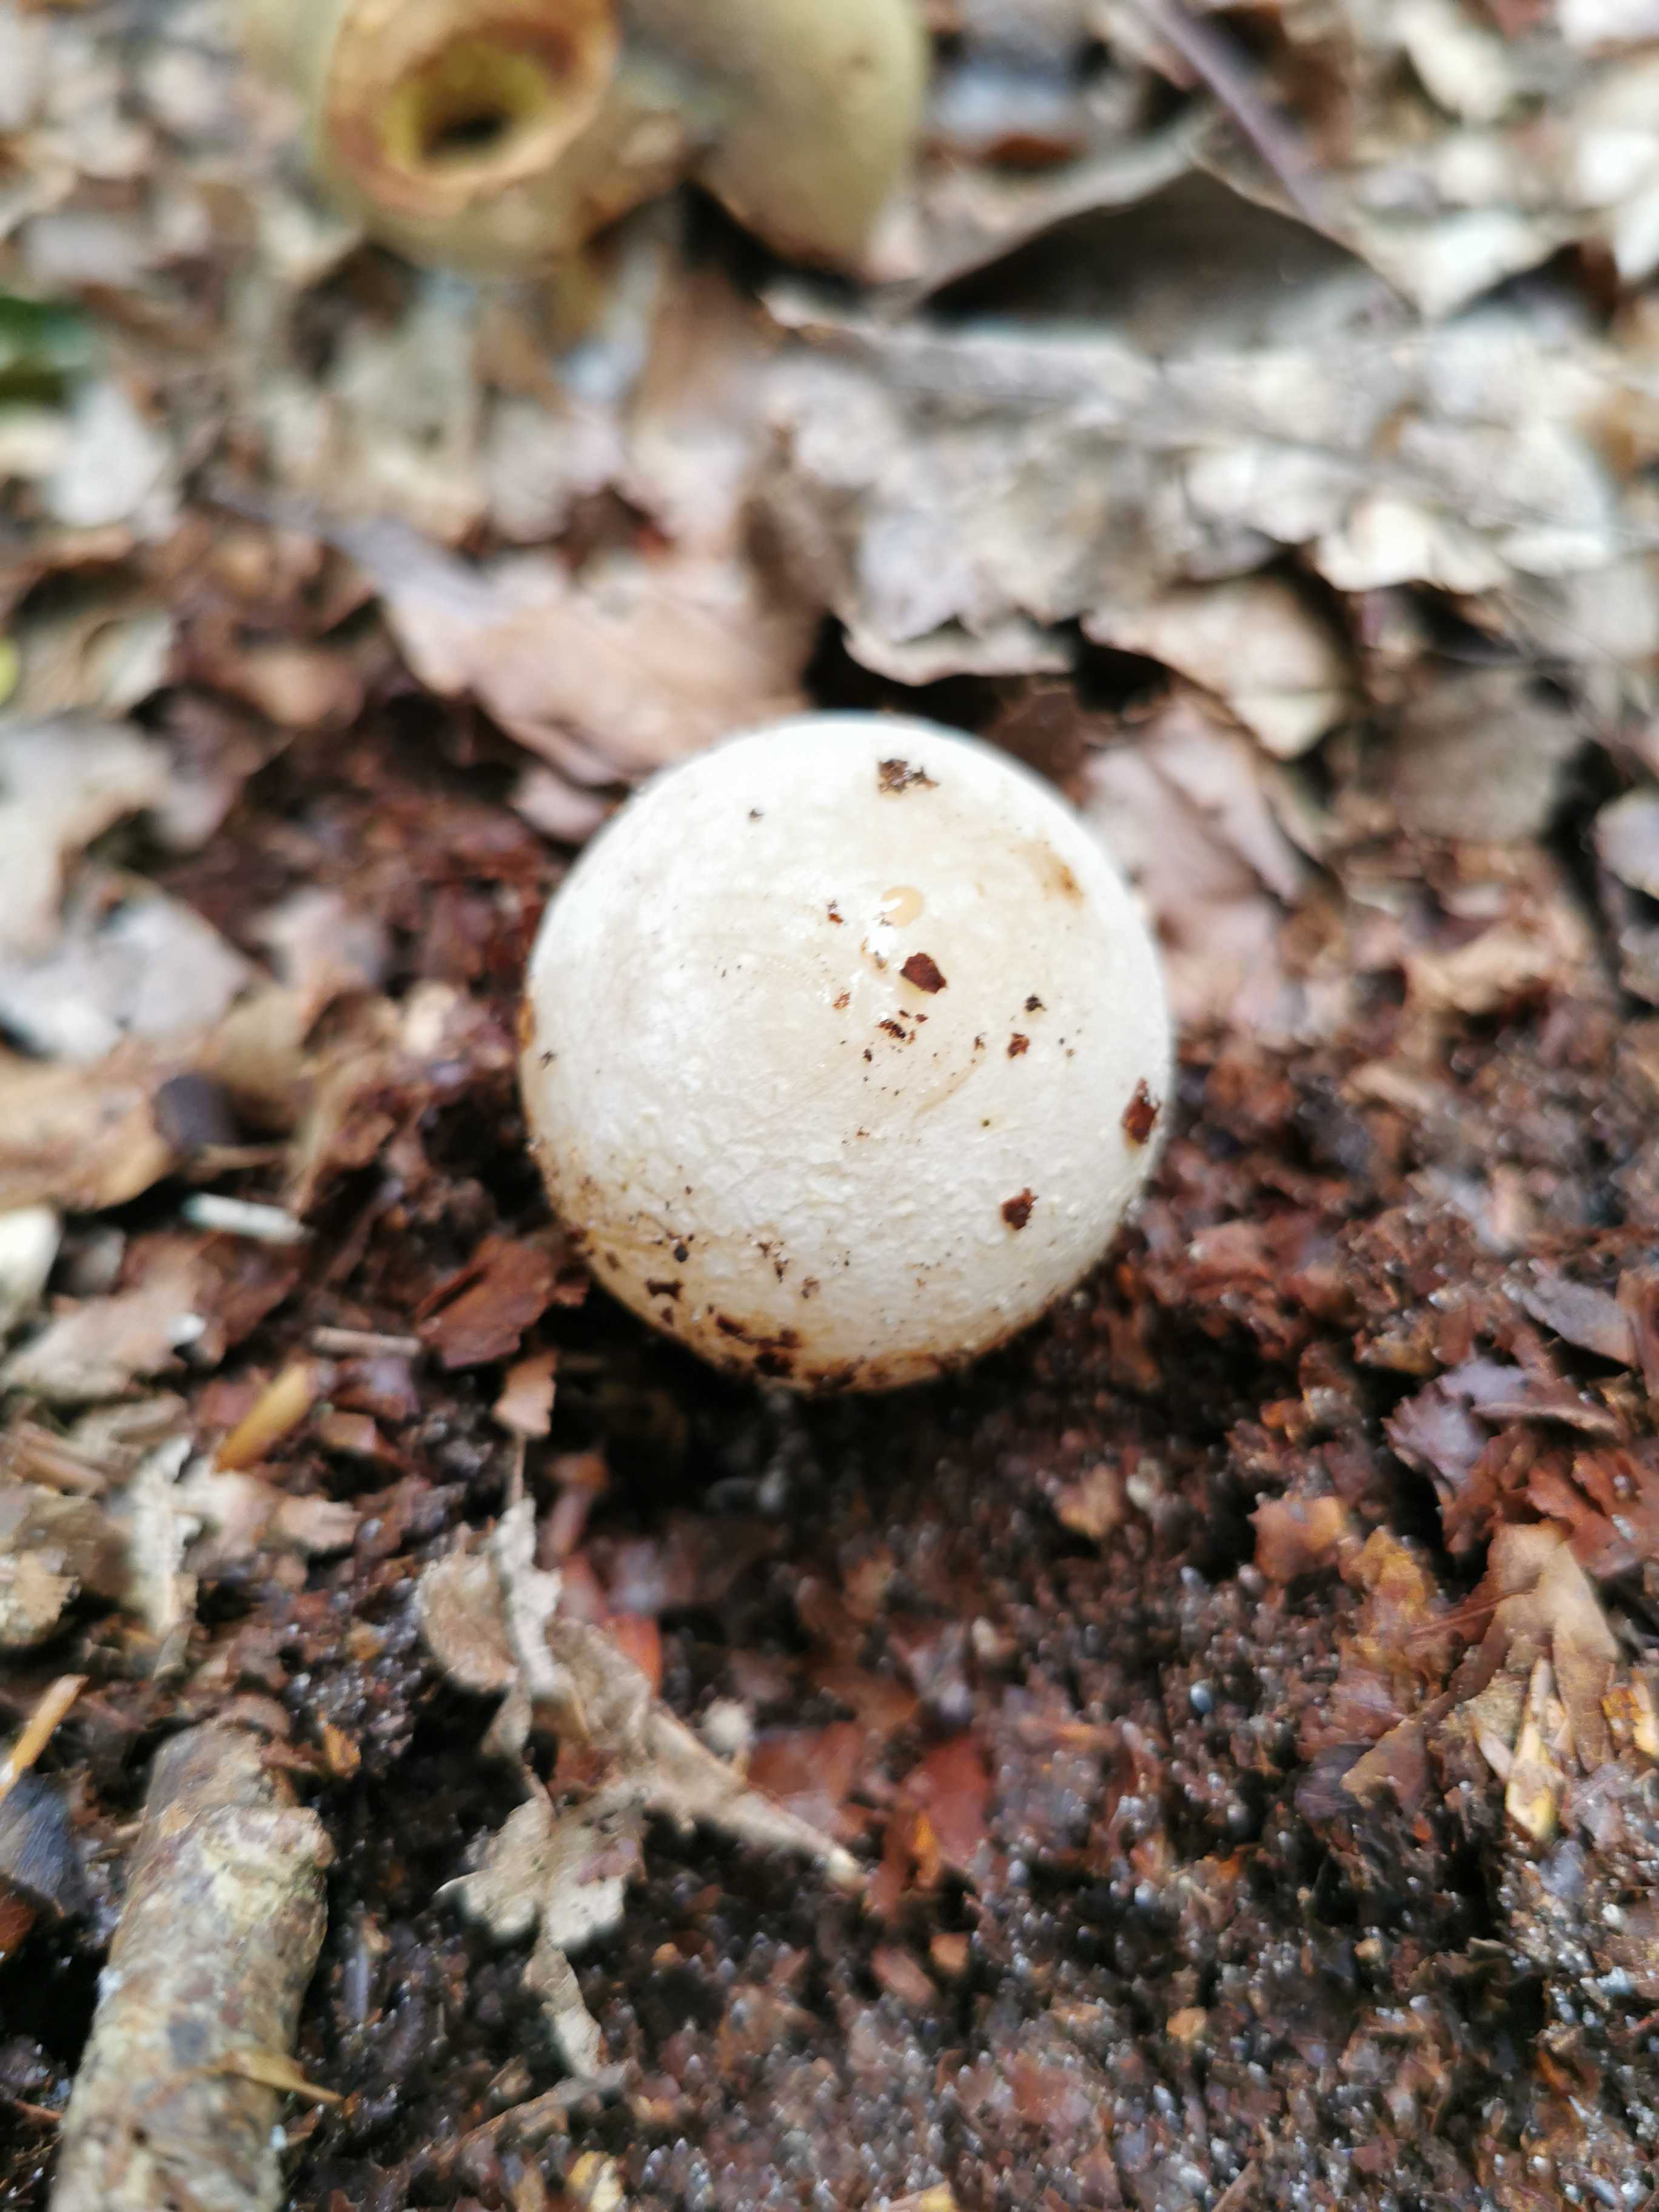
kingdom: Fungi
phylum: Basidiomycota
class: Agaricomycetes
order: Phallales
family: Phallaceae
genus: Phallus
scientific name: Phallus impudicus
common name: almindelig stinksvamp
